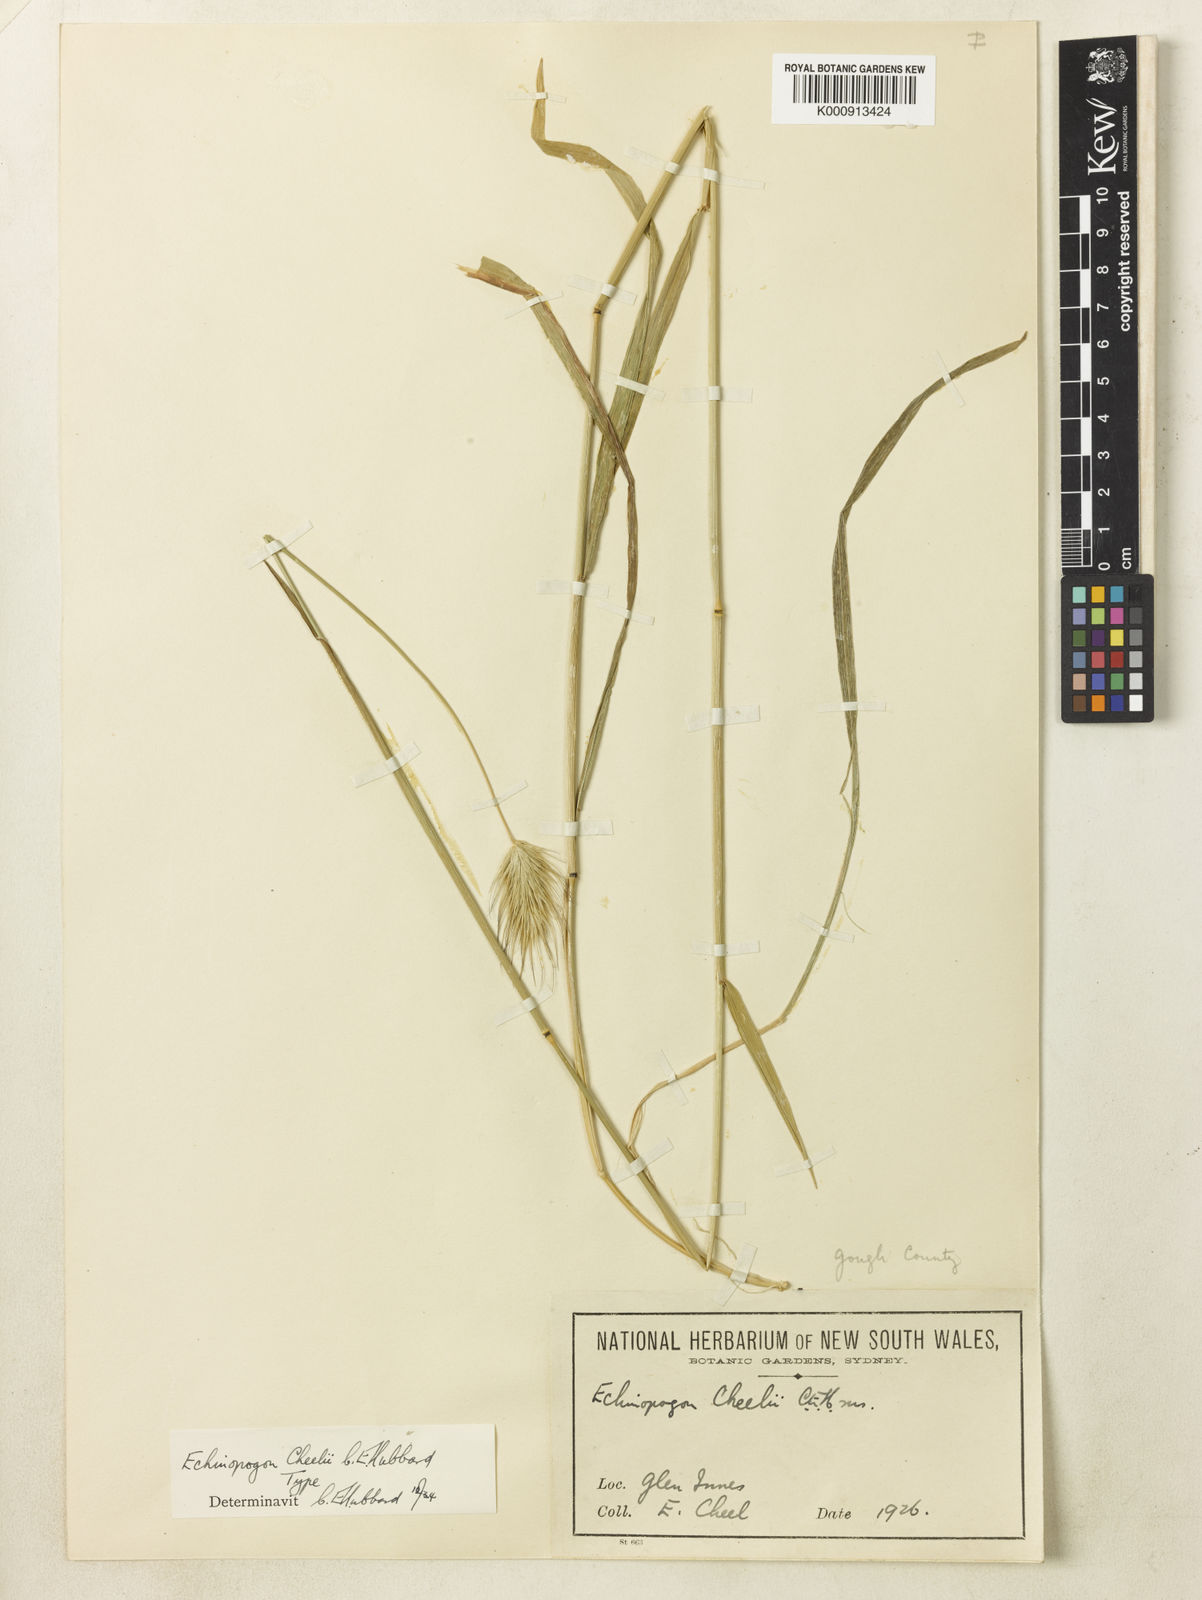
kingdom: Plantae
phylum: Tracheophyta
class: Liliopsida
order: Poales
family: Poaceae
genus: Echinopogon
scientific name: Echinopogon cheelii
